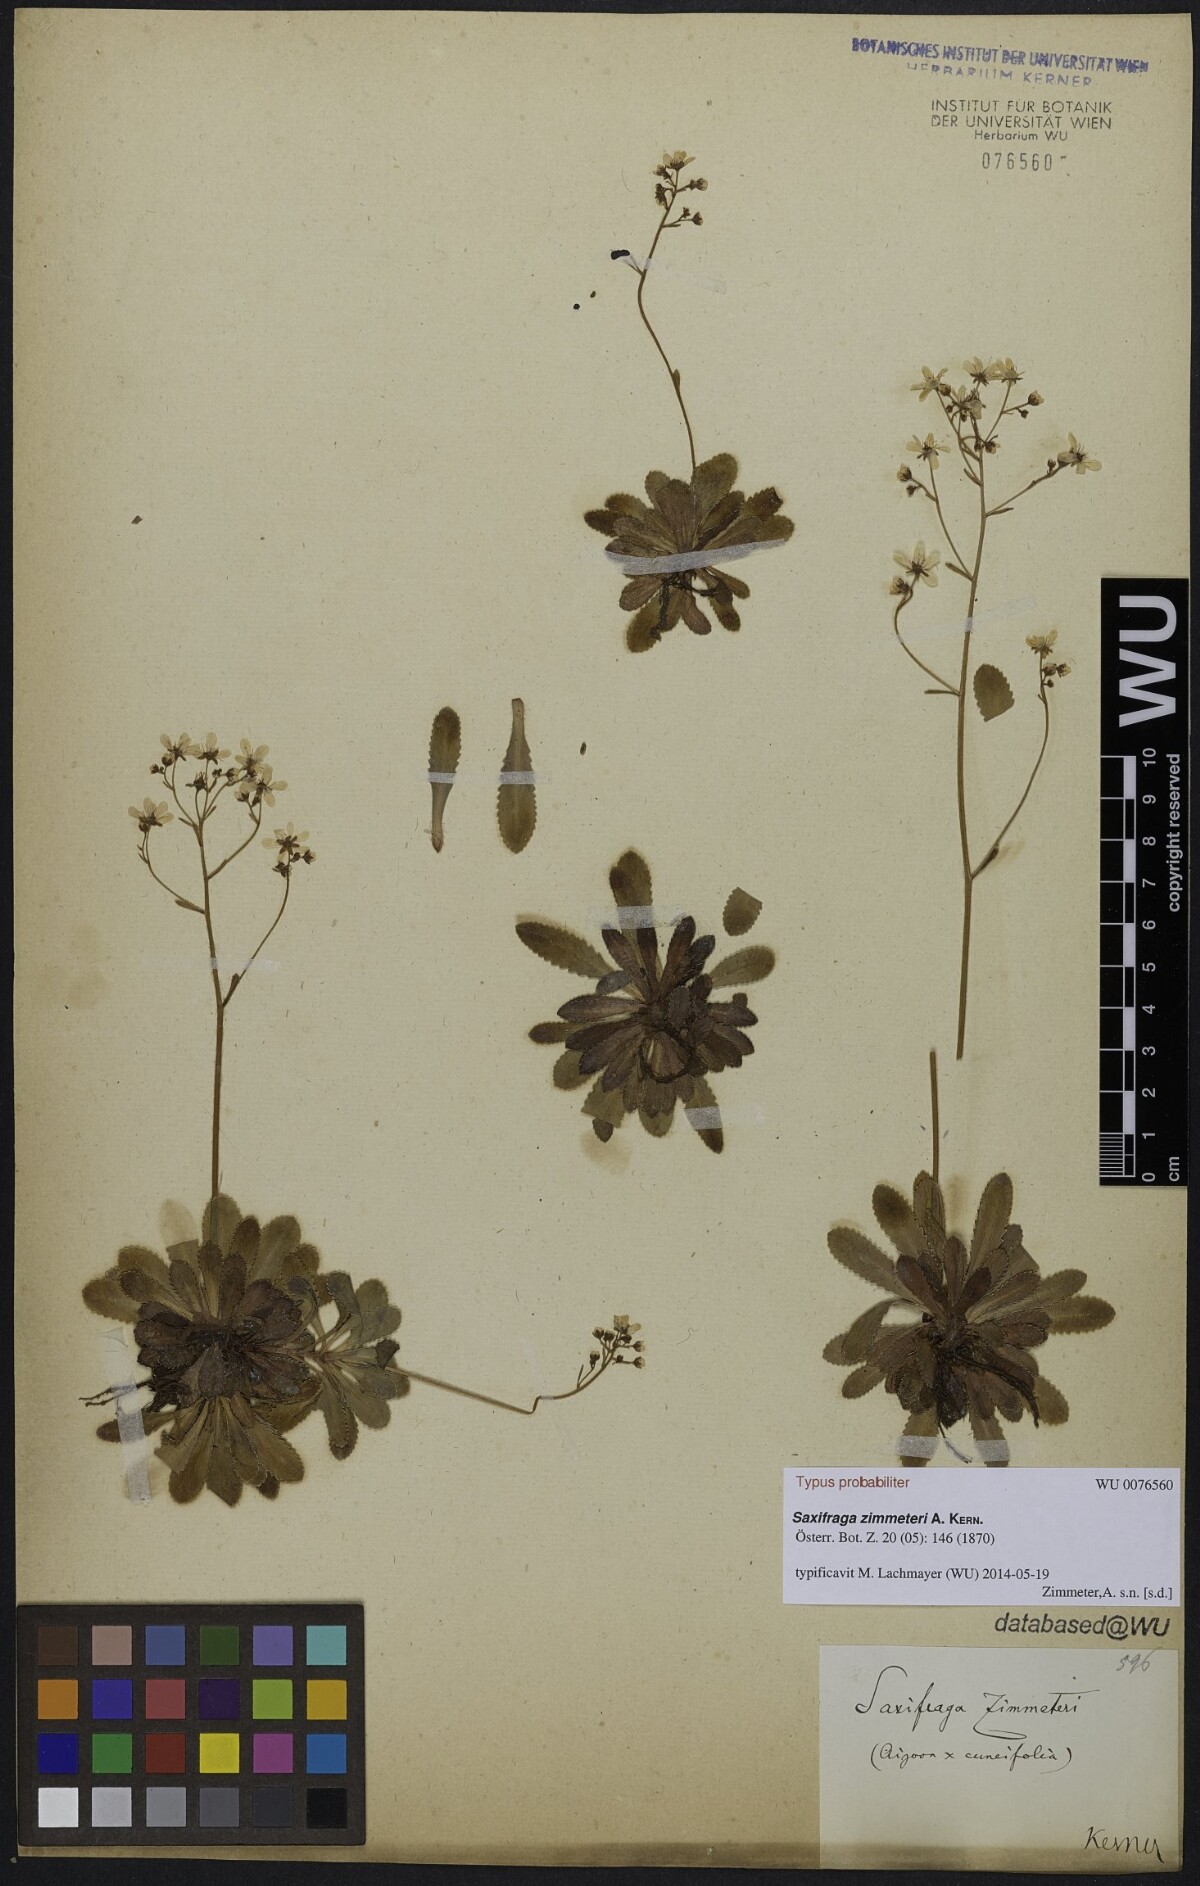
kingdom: Plantae
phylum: Tracheophyta
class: Magnoliopsida
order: Saxifragales
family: Saxifragaceae
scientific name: Saxifragaceae
